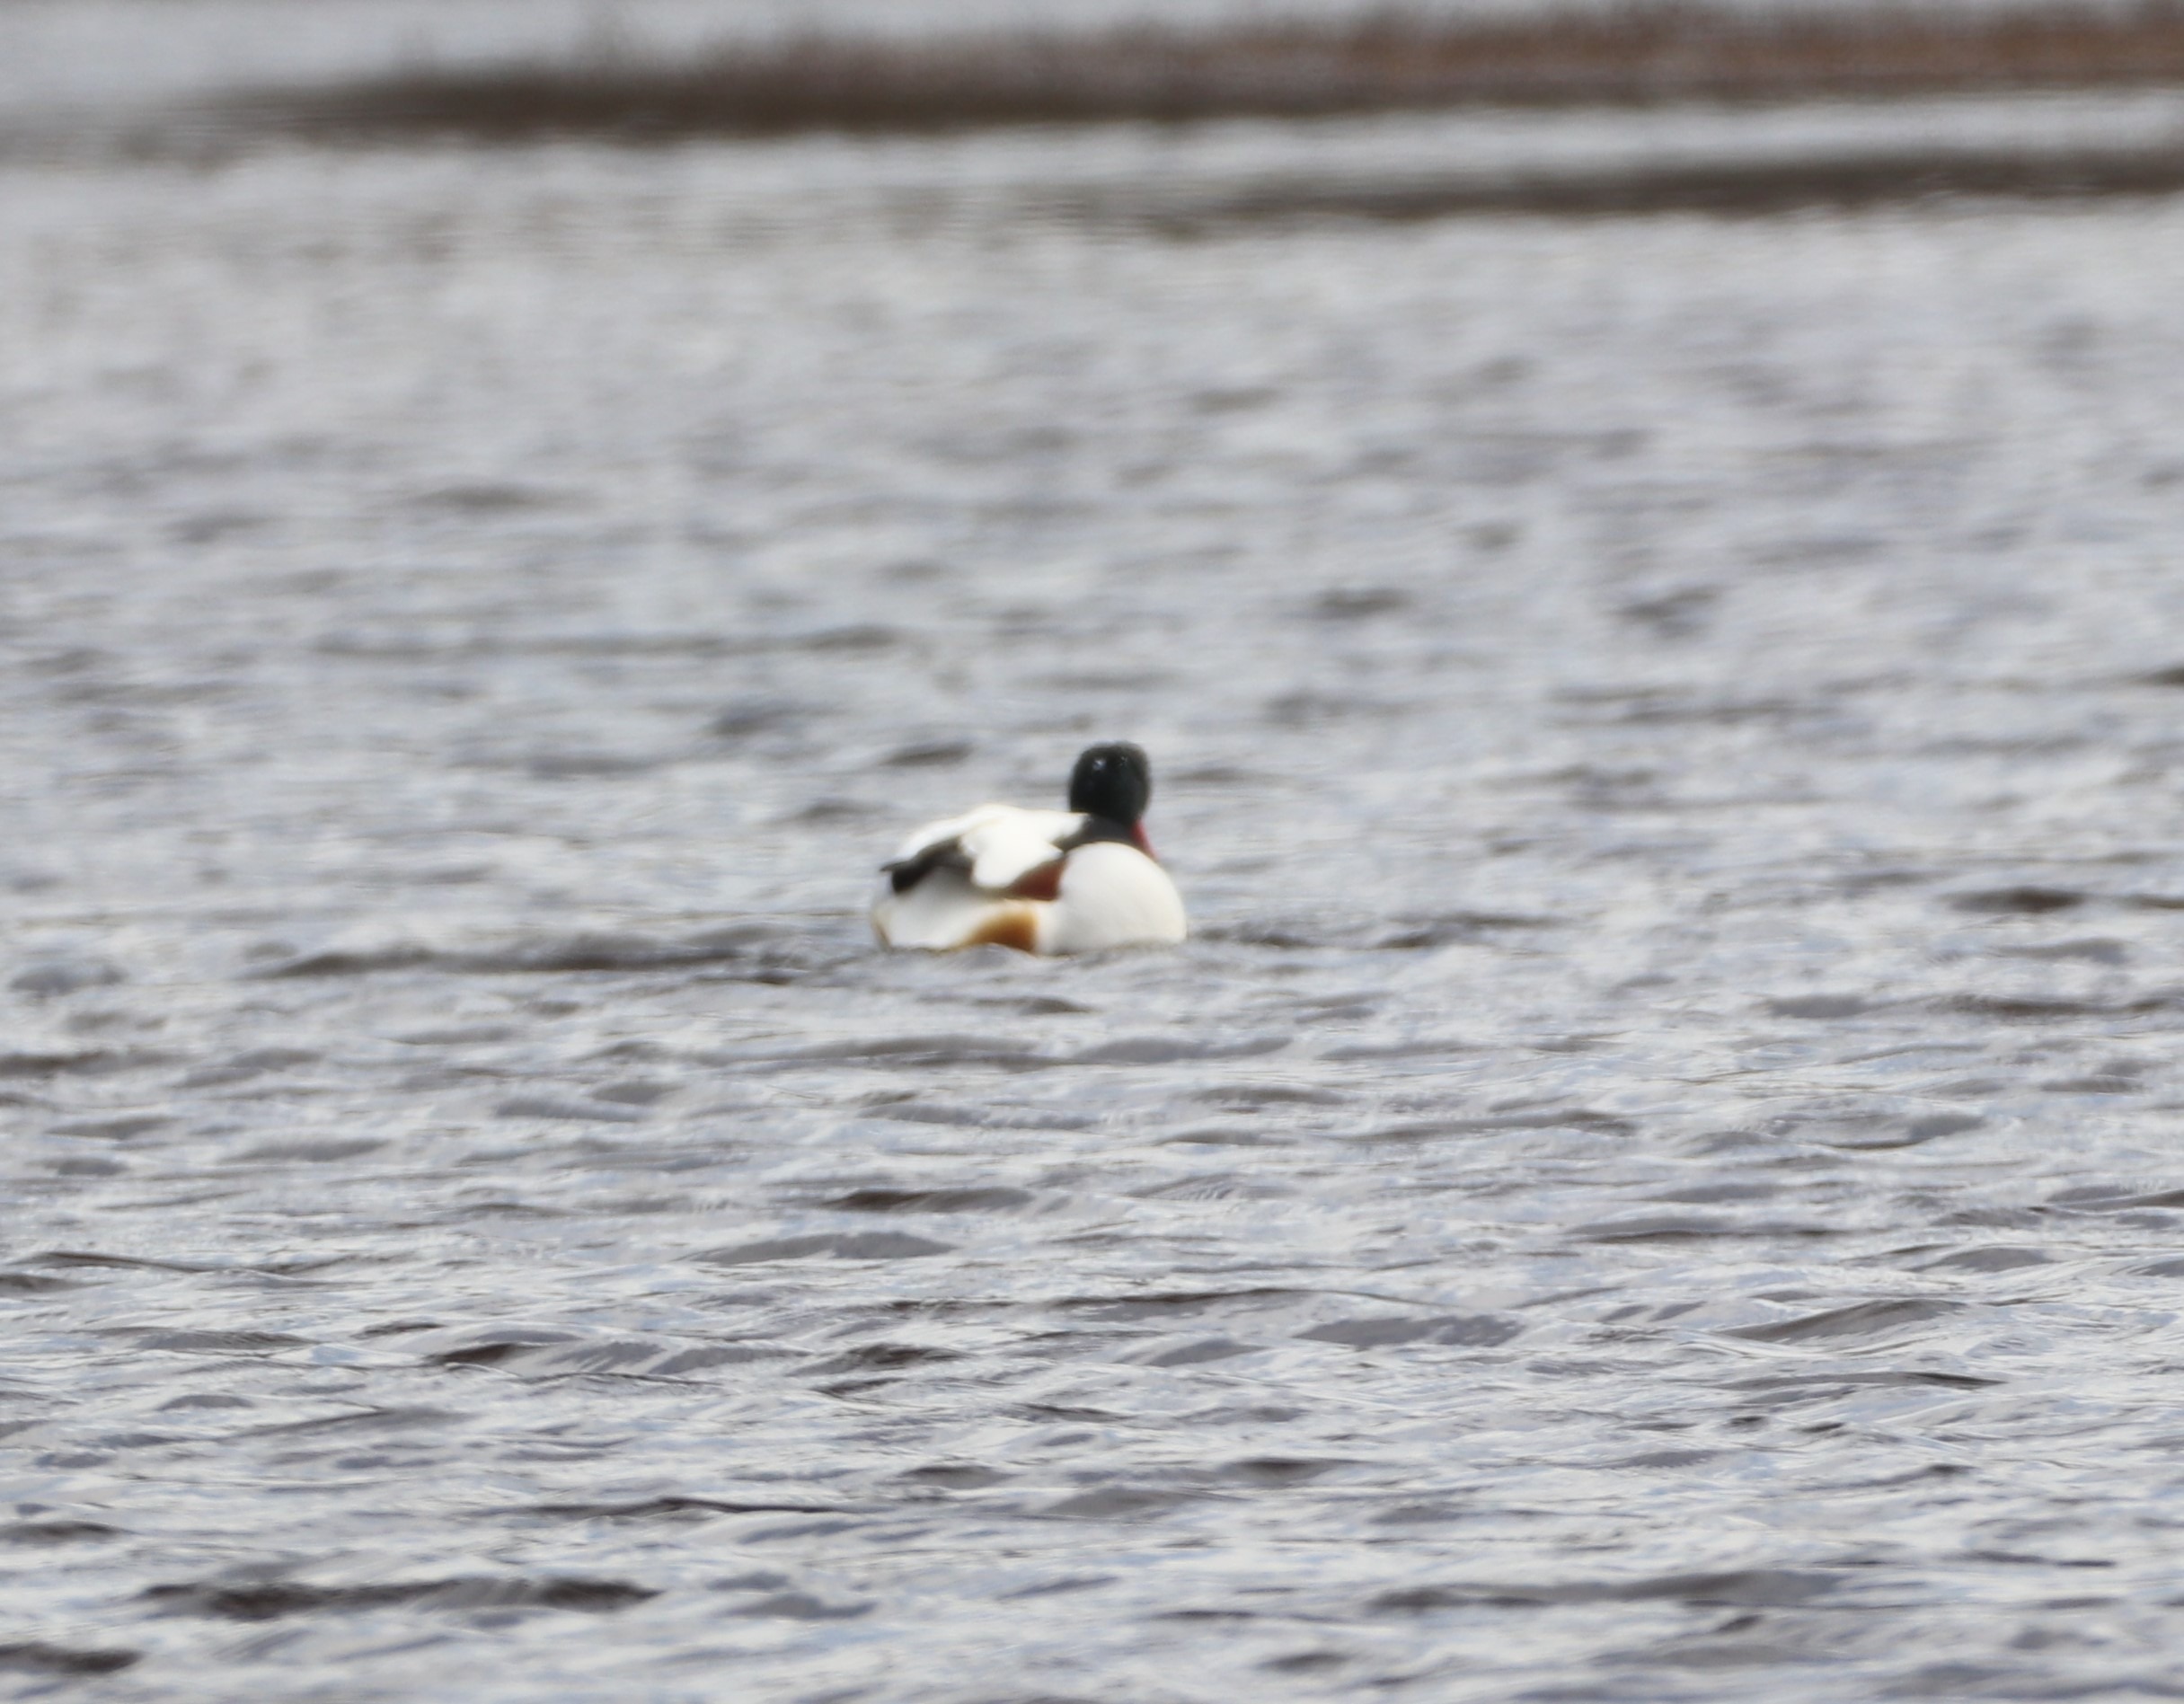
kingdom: Animalia
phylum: Chordata
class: Aves
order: Anseriformes
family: Anatidae
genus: Tadorna
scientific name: Tadorna tadorna
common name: Gravand
